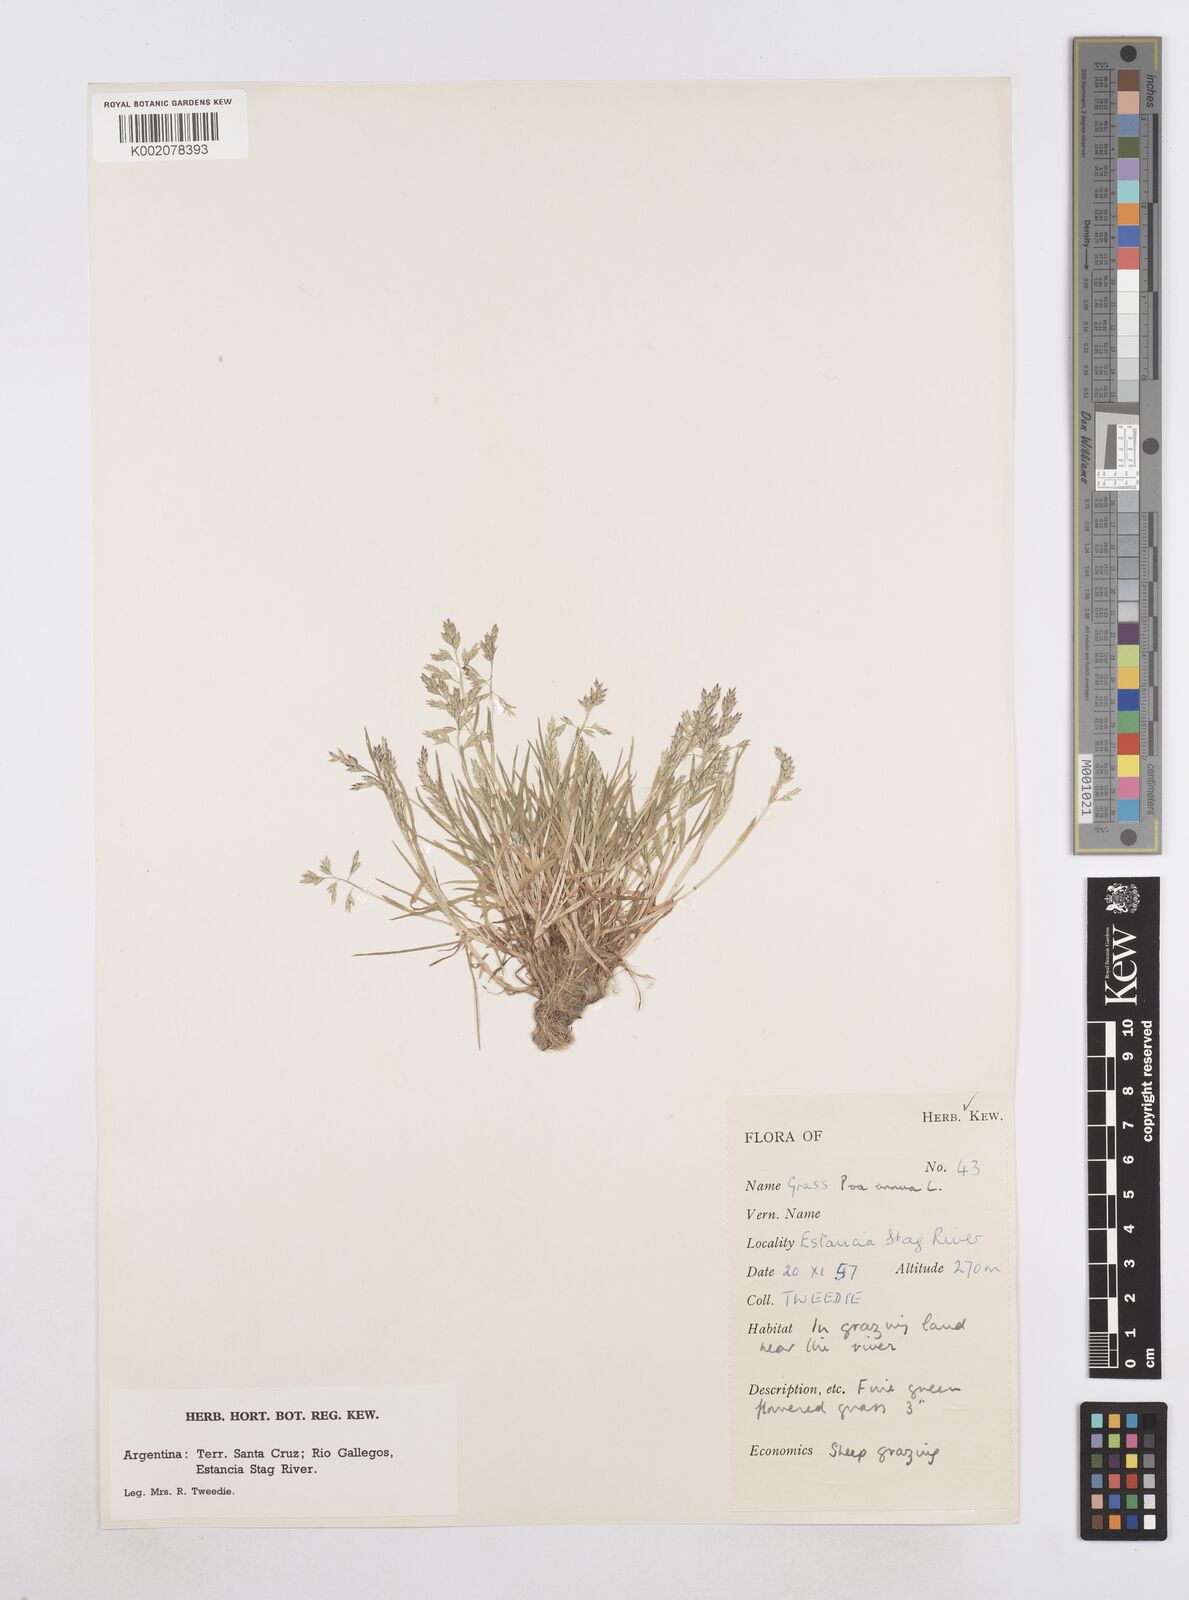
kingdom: Plantae
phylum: Tracheophyta
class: Liliopsida
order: Poales
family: Poaceae
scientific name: Poaceae
